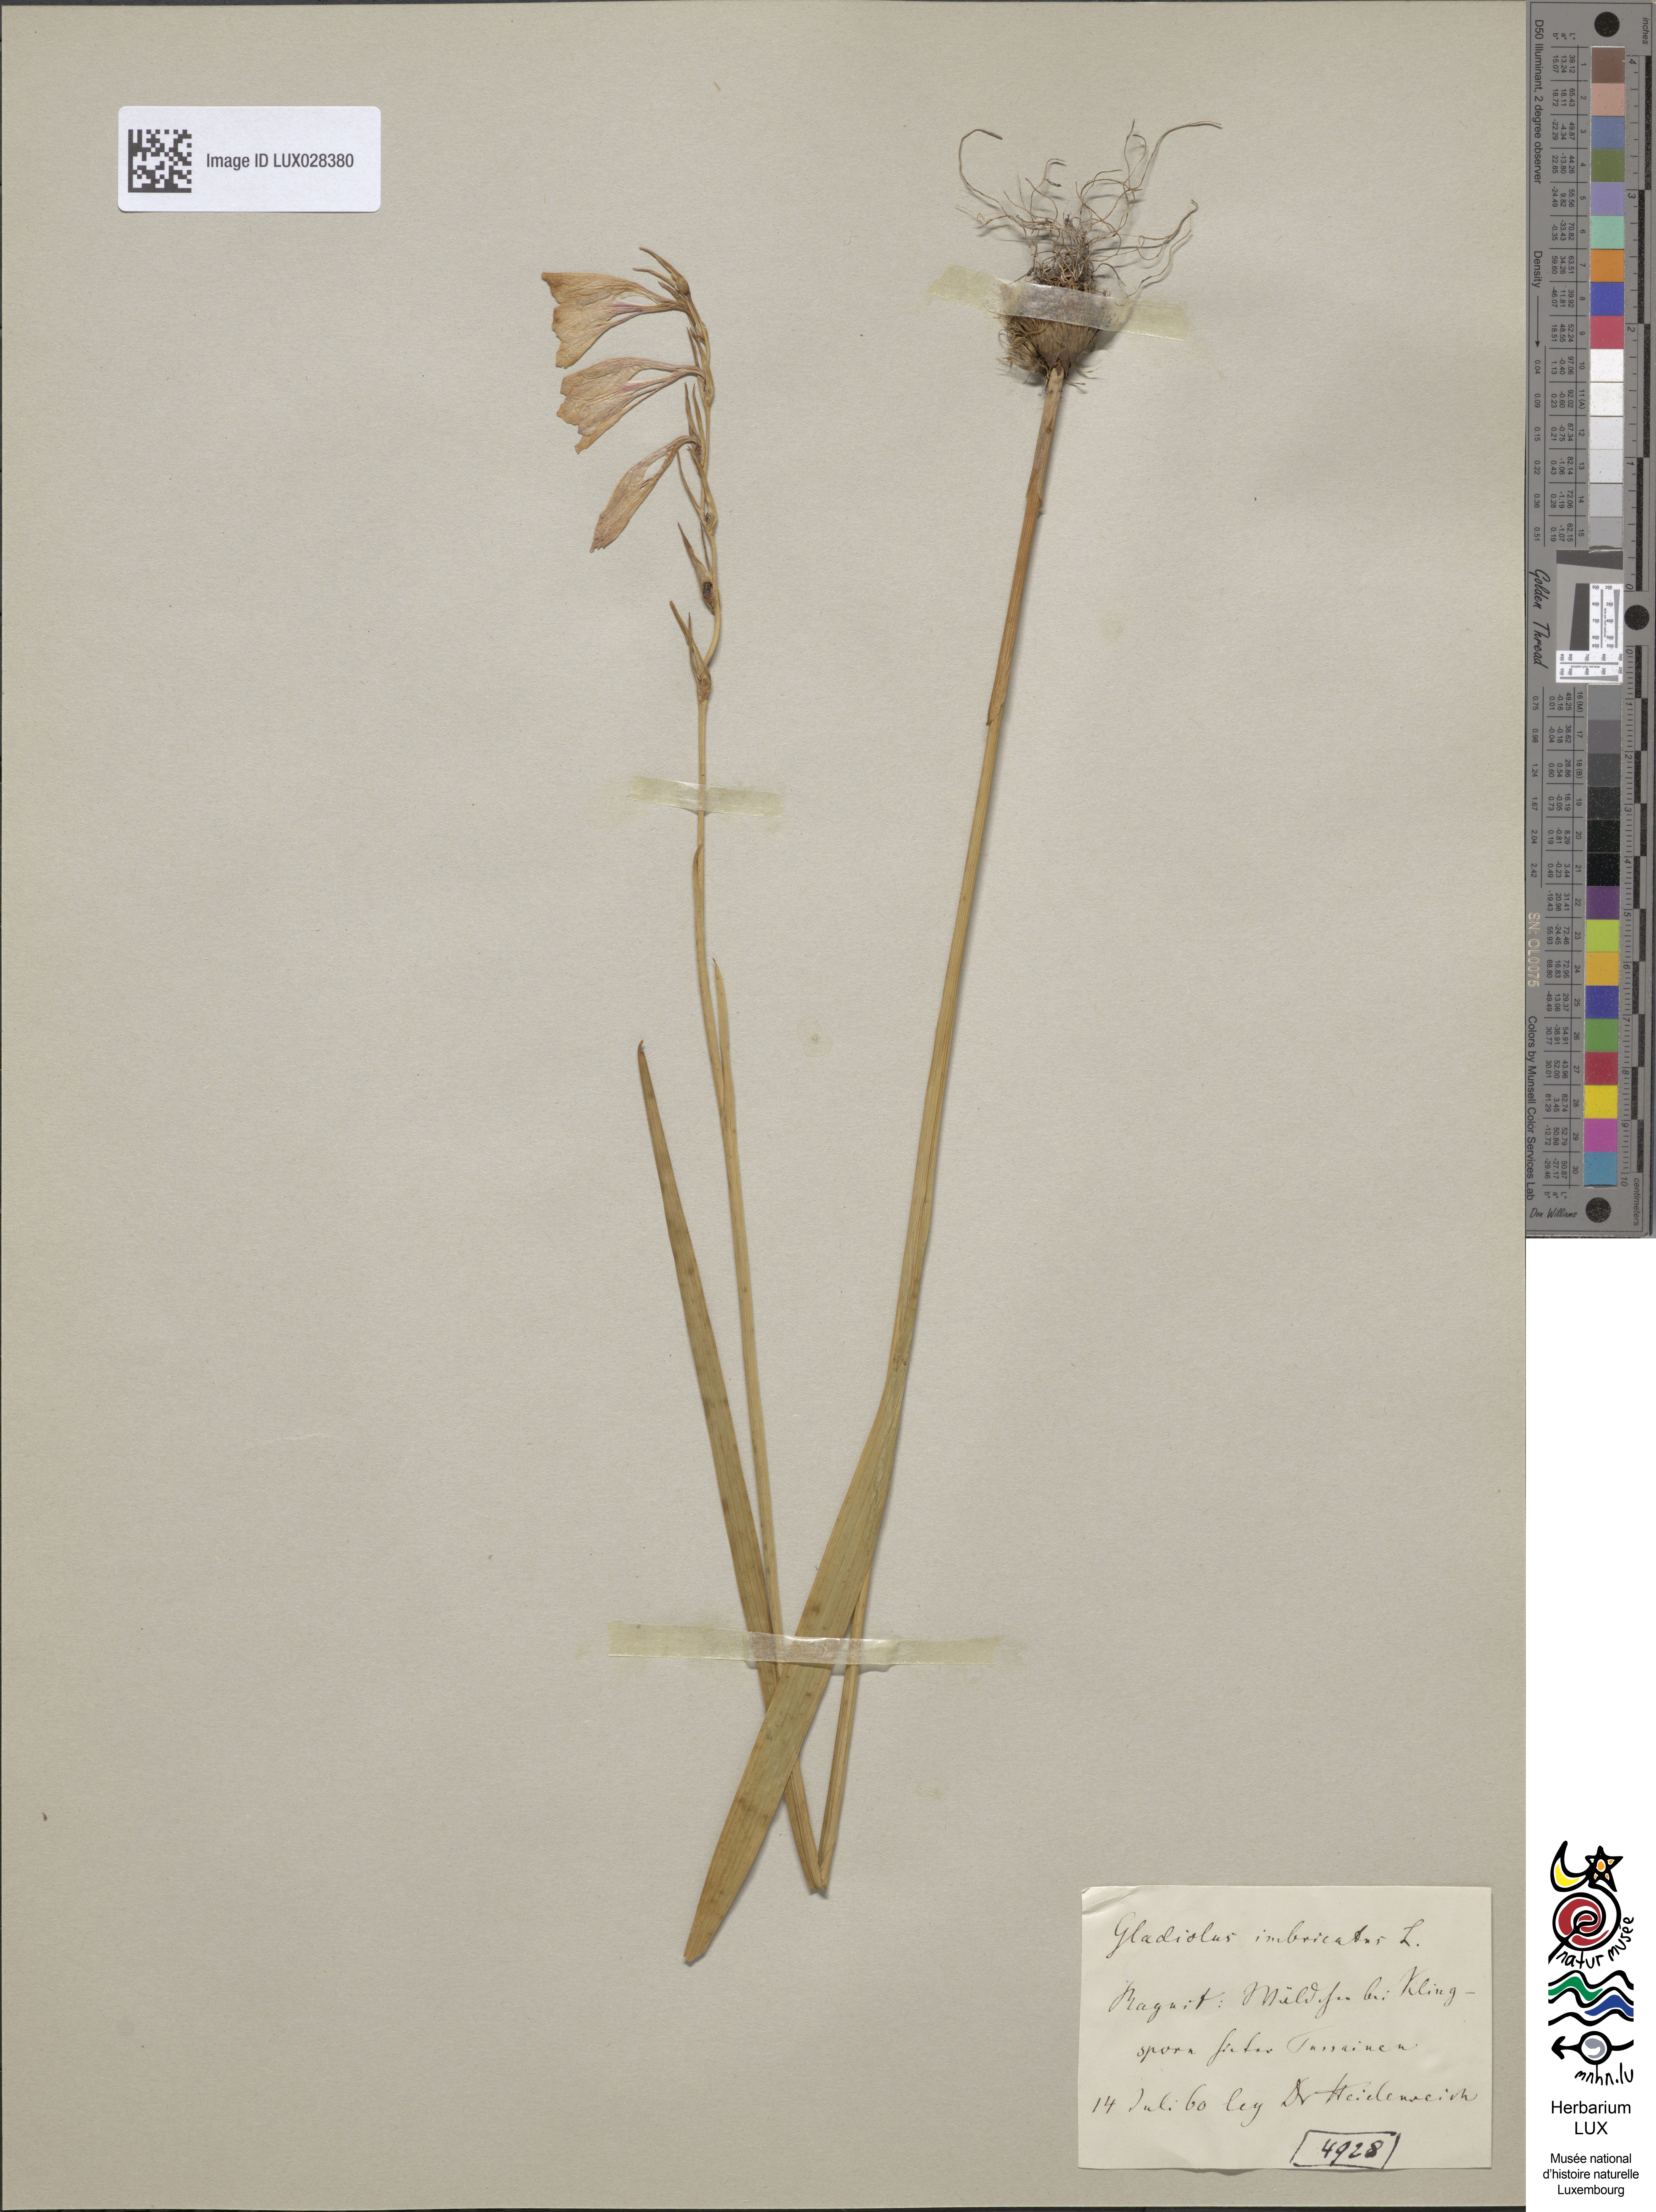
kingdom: Plantae
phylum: Tracheophyta
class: Liliopsida
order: Asparagales
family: Iridaceae
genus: Gladiolus
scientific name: Gladiolus imbricatus
